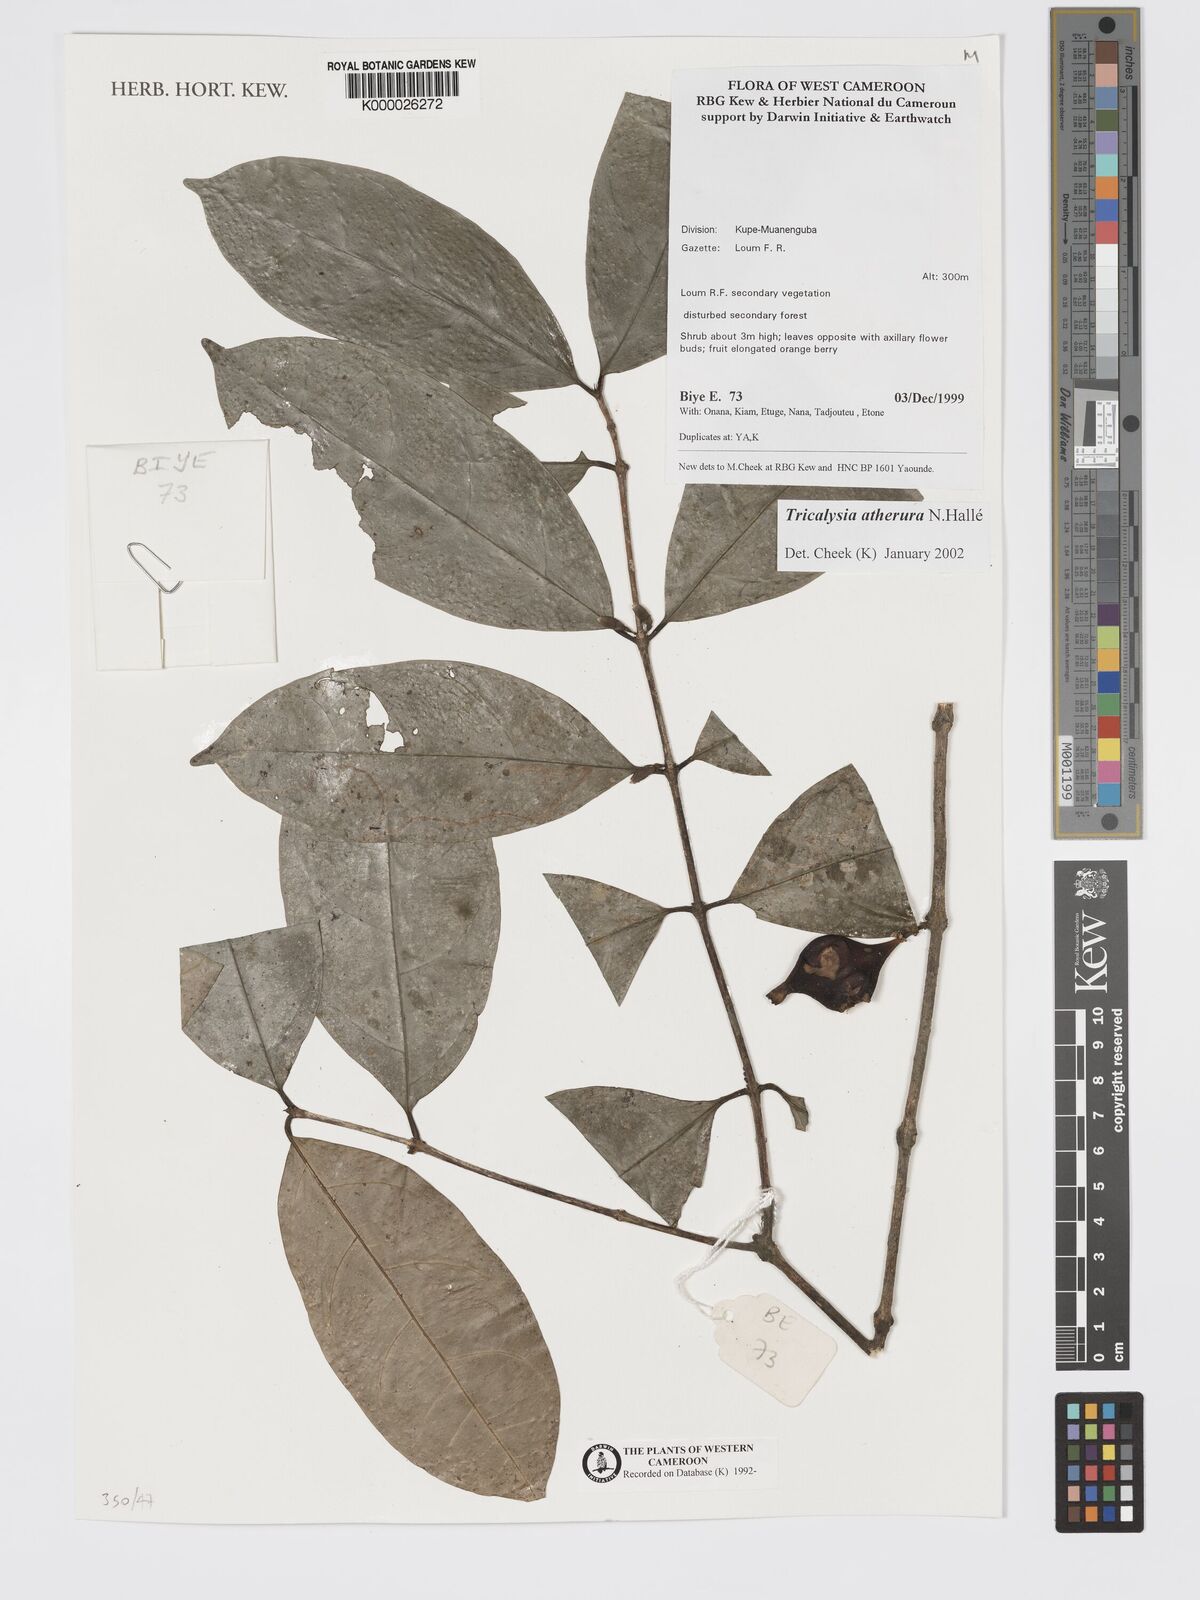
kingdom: Plantae
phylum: Tracheophyta
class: Magnoliopsida
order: Gentianales
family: Rubiaceae
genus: Tricalysia
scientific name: Tricalysia
